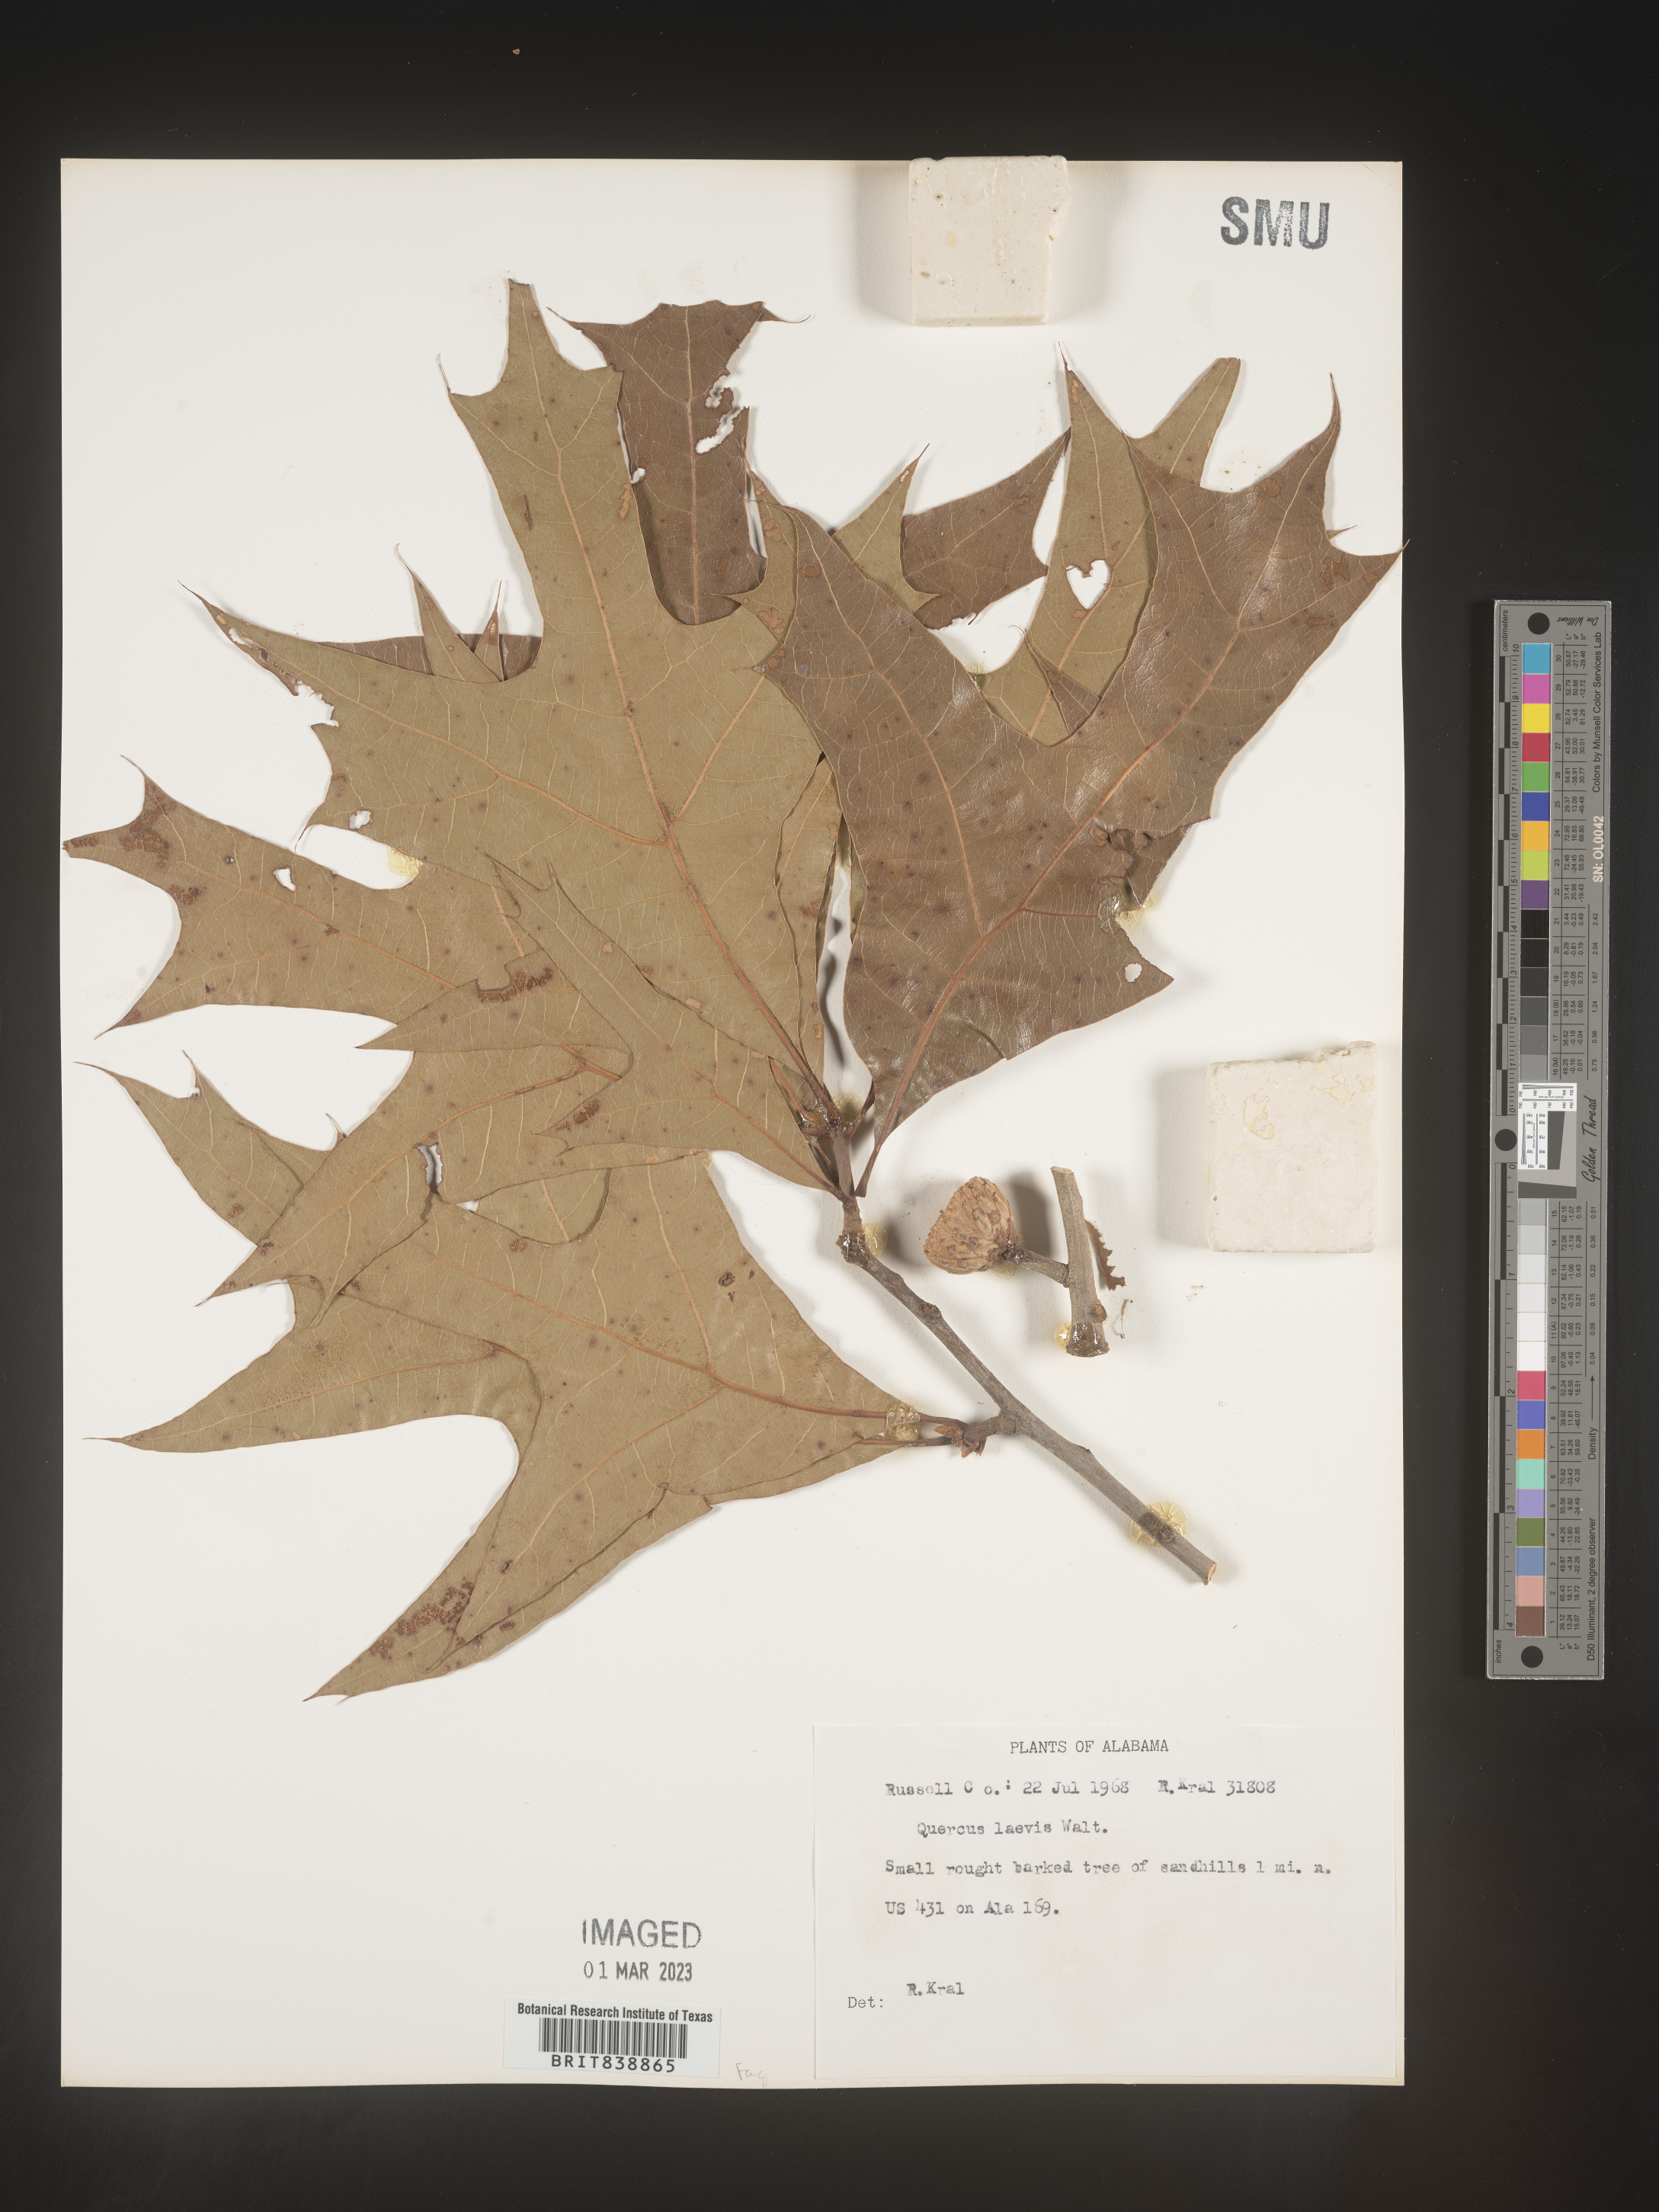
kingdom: Plantae
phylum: Tracheophyta
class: Magnoliopsida
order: Fagales
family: Fagaceae
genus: Quercus
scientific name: Quercus laevis
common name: Turkey oak
